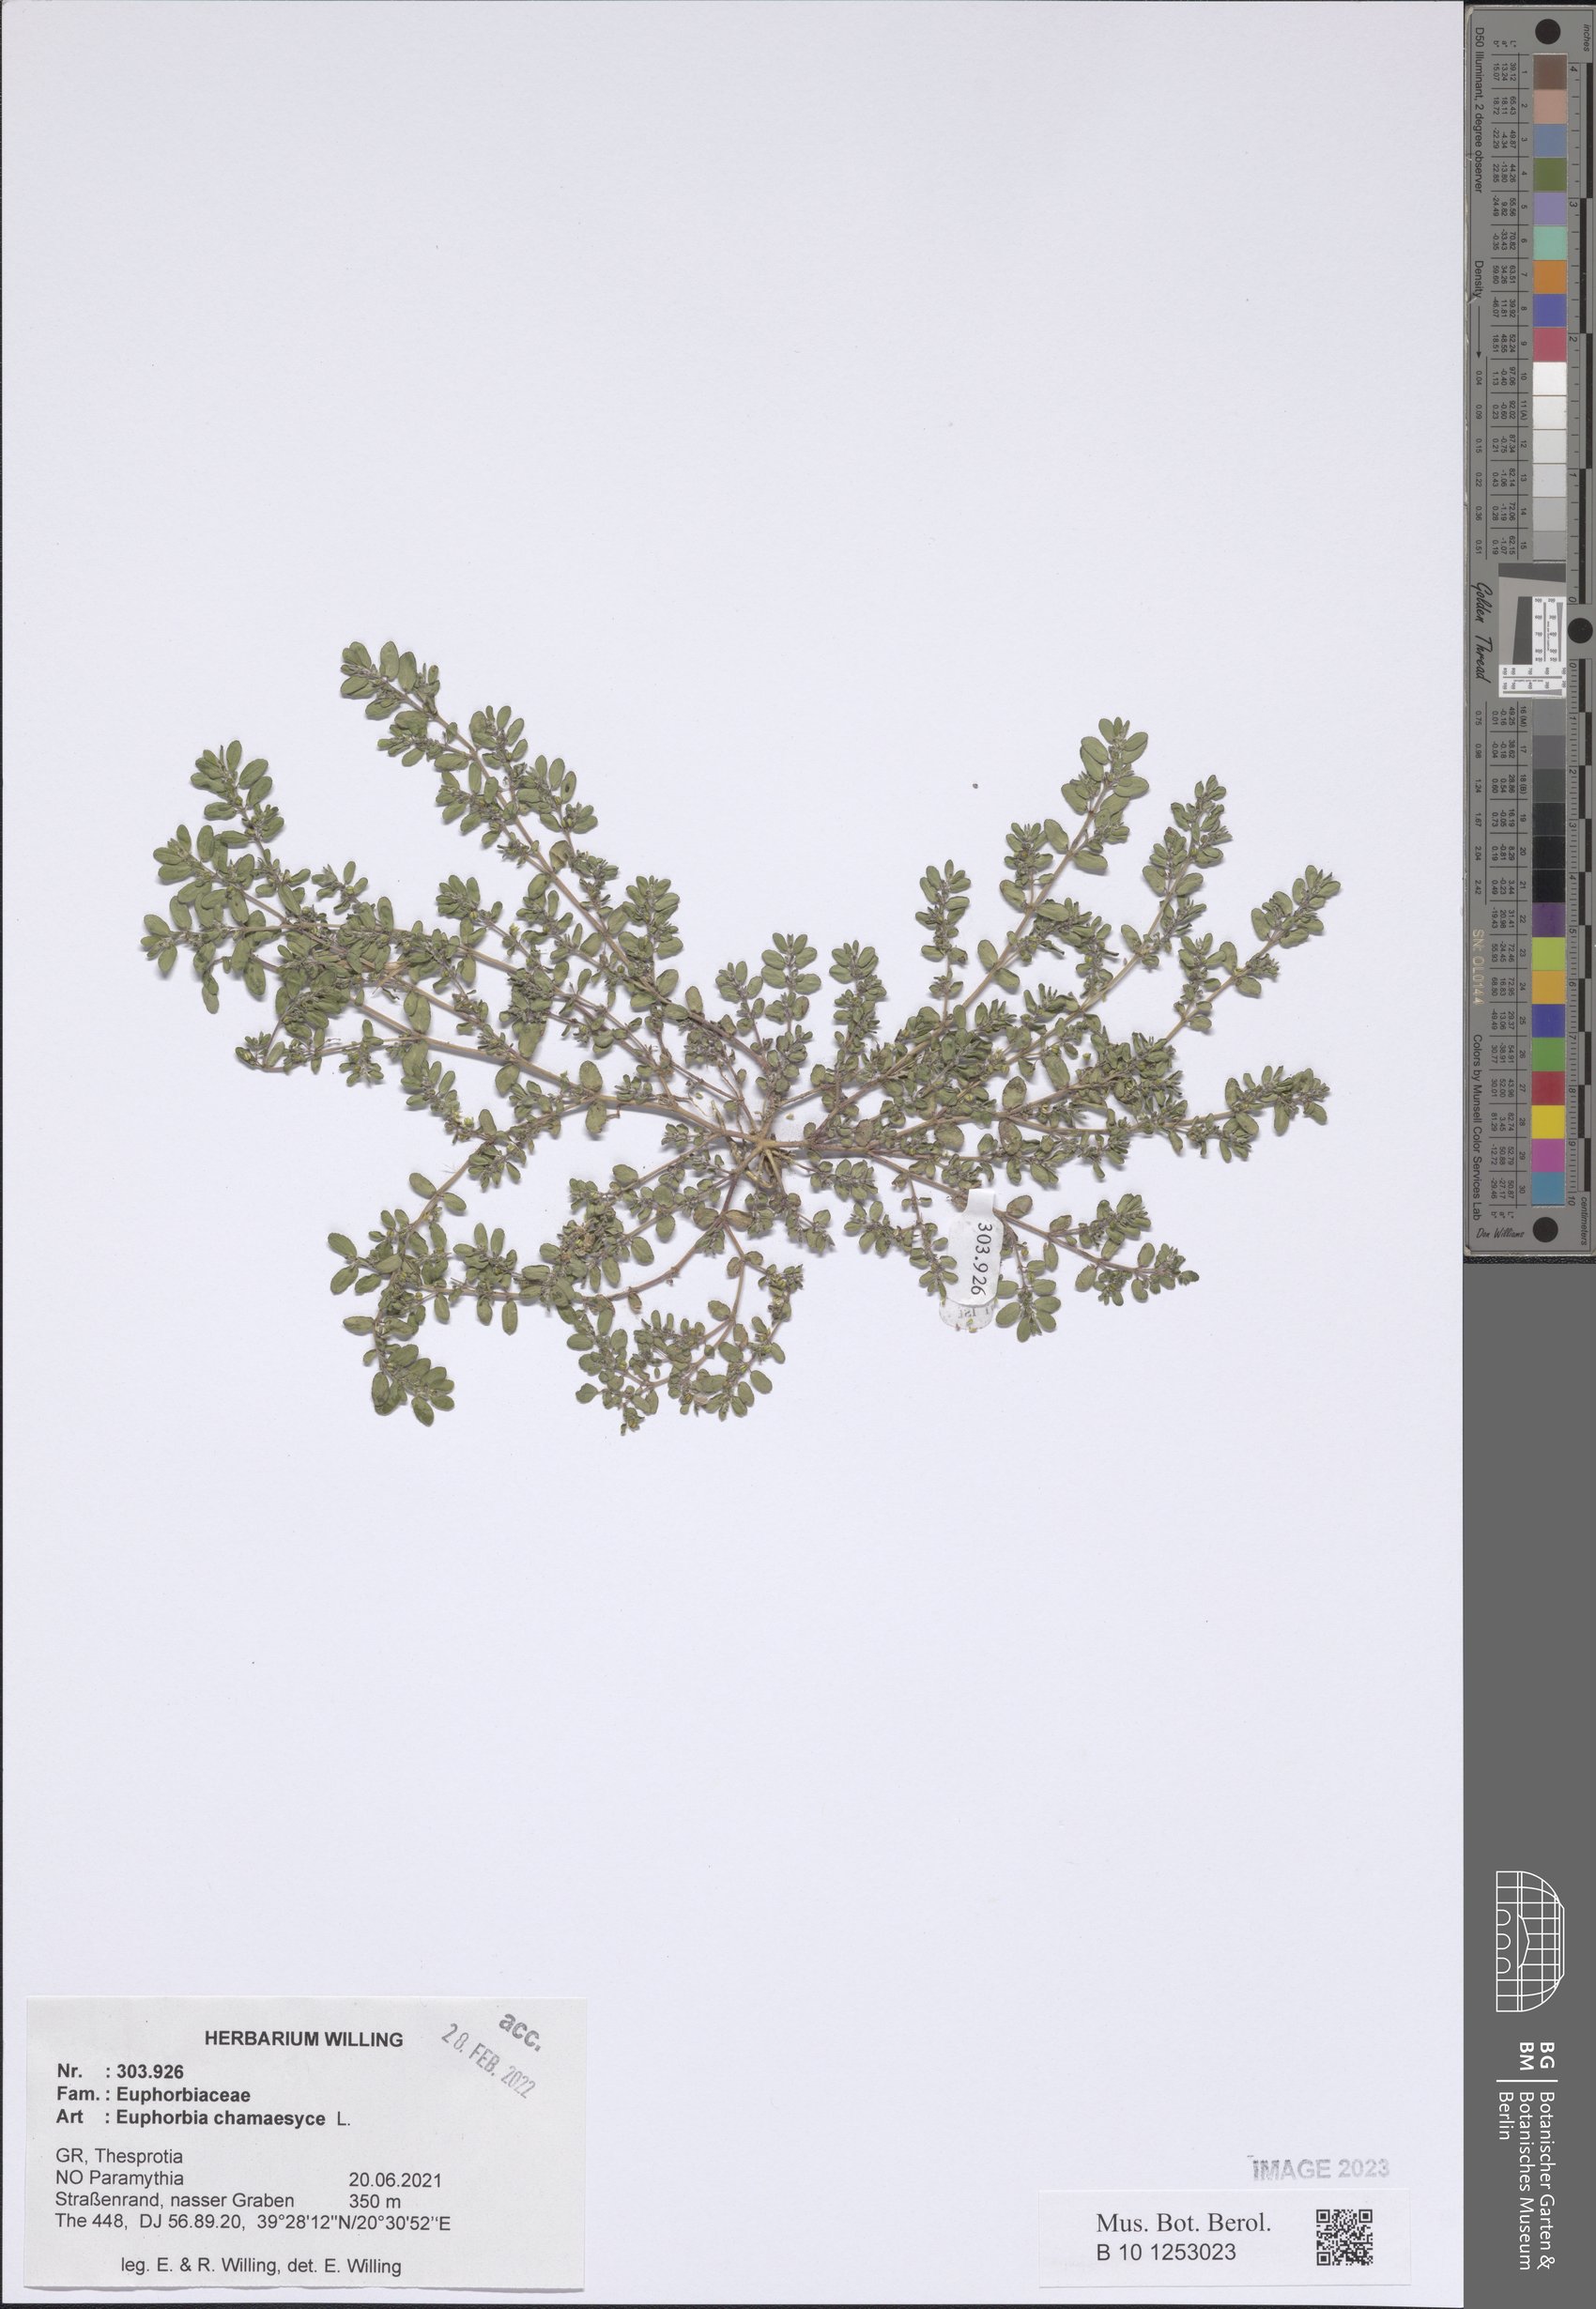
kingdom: Plantae
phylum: Tracheophyta
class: Magnoliopsida
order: Malpighiales
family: Euphorbiaceae
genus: Euphorbia
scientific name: Euphorbia chamaesyce
